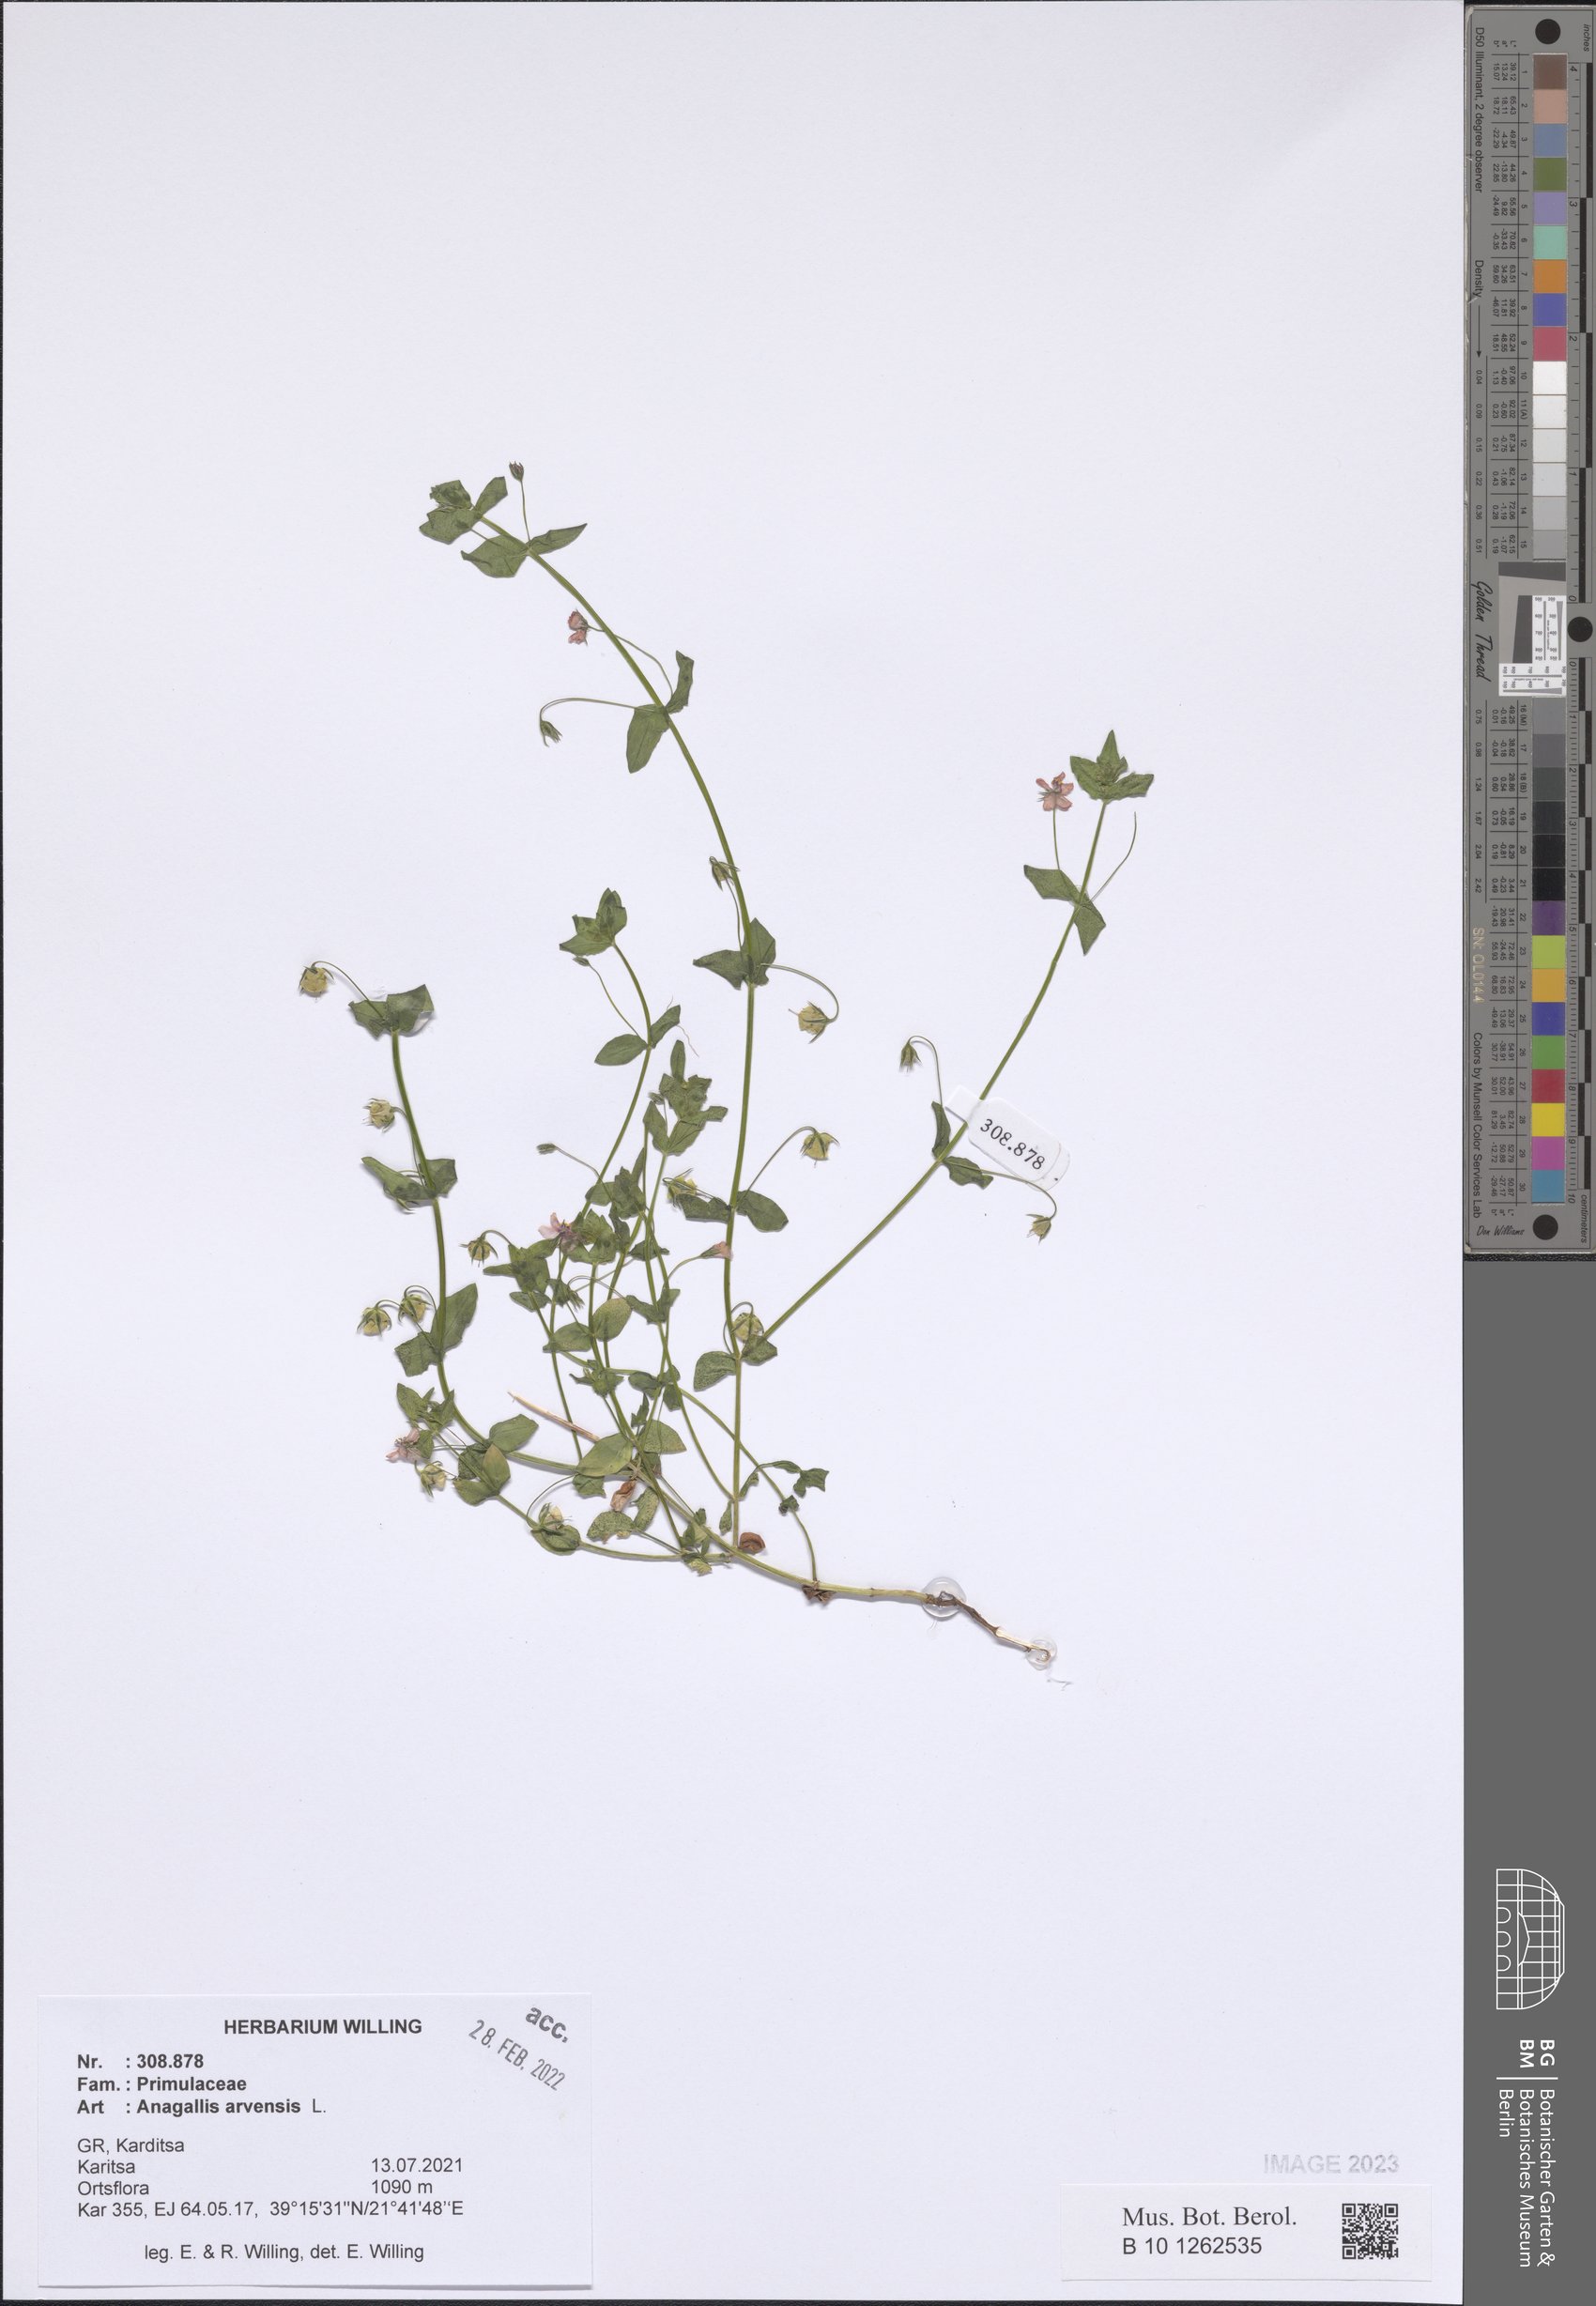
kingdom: Plantae
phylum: Tracheophyta
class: Magnoliopsida
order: Ericales
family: Primulaceae
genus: Lysimachia
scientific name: Lysimachia arvensis
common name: Scarlet pimpernel
